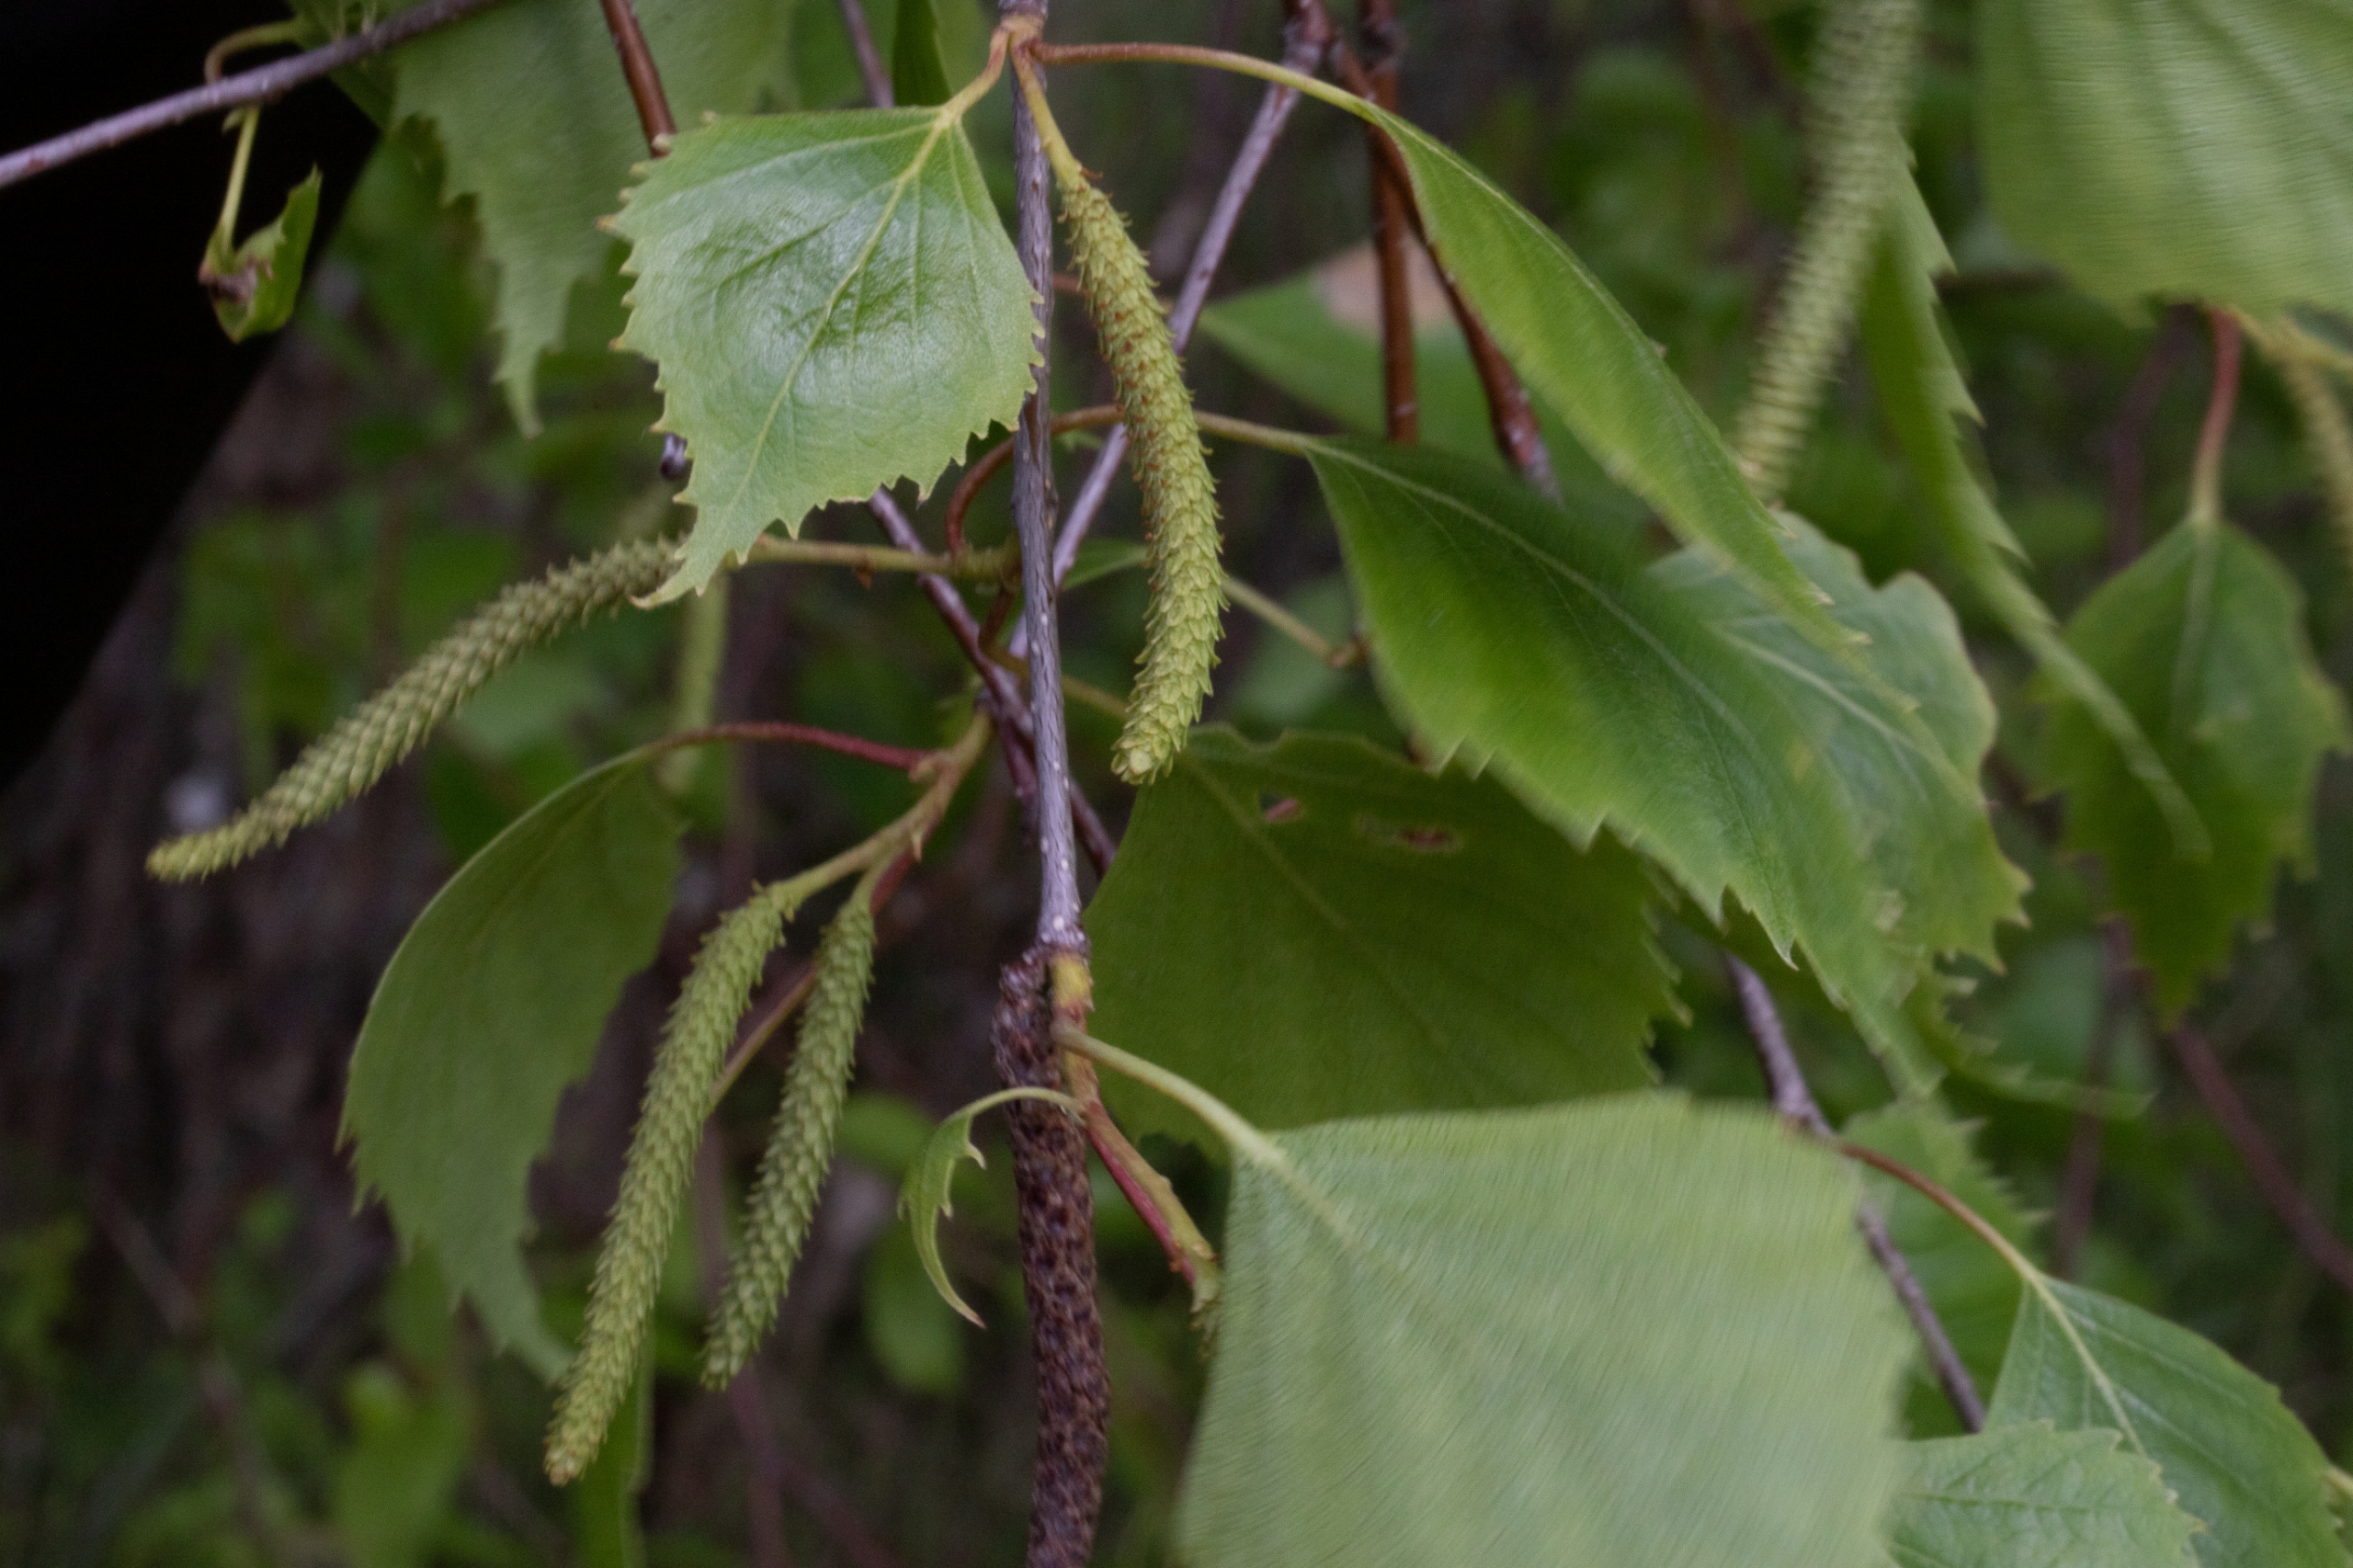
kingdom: Plantae
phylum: Tracheophyta
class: Magnoliopsida
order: Fagales
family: Betulaceae
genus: Betula
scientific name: Betula pendula
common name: Vorte-birk
